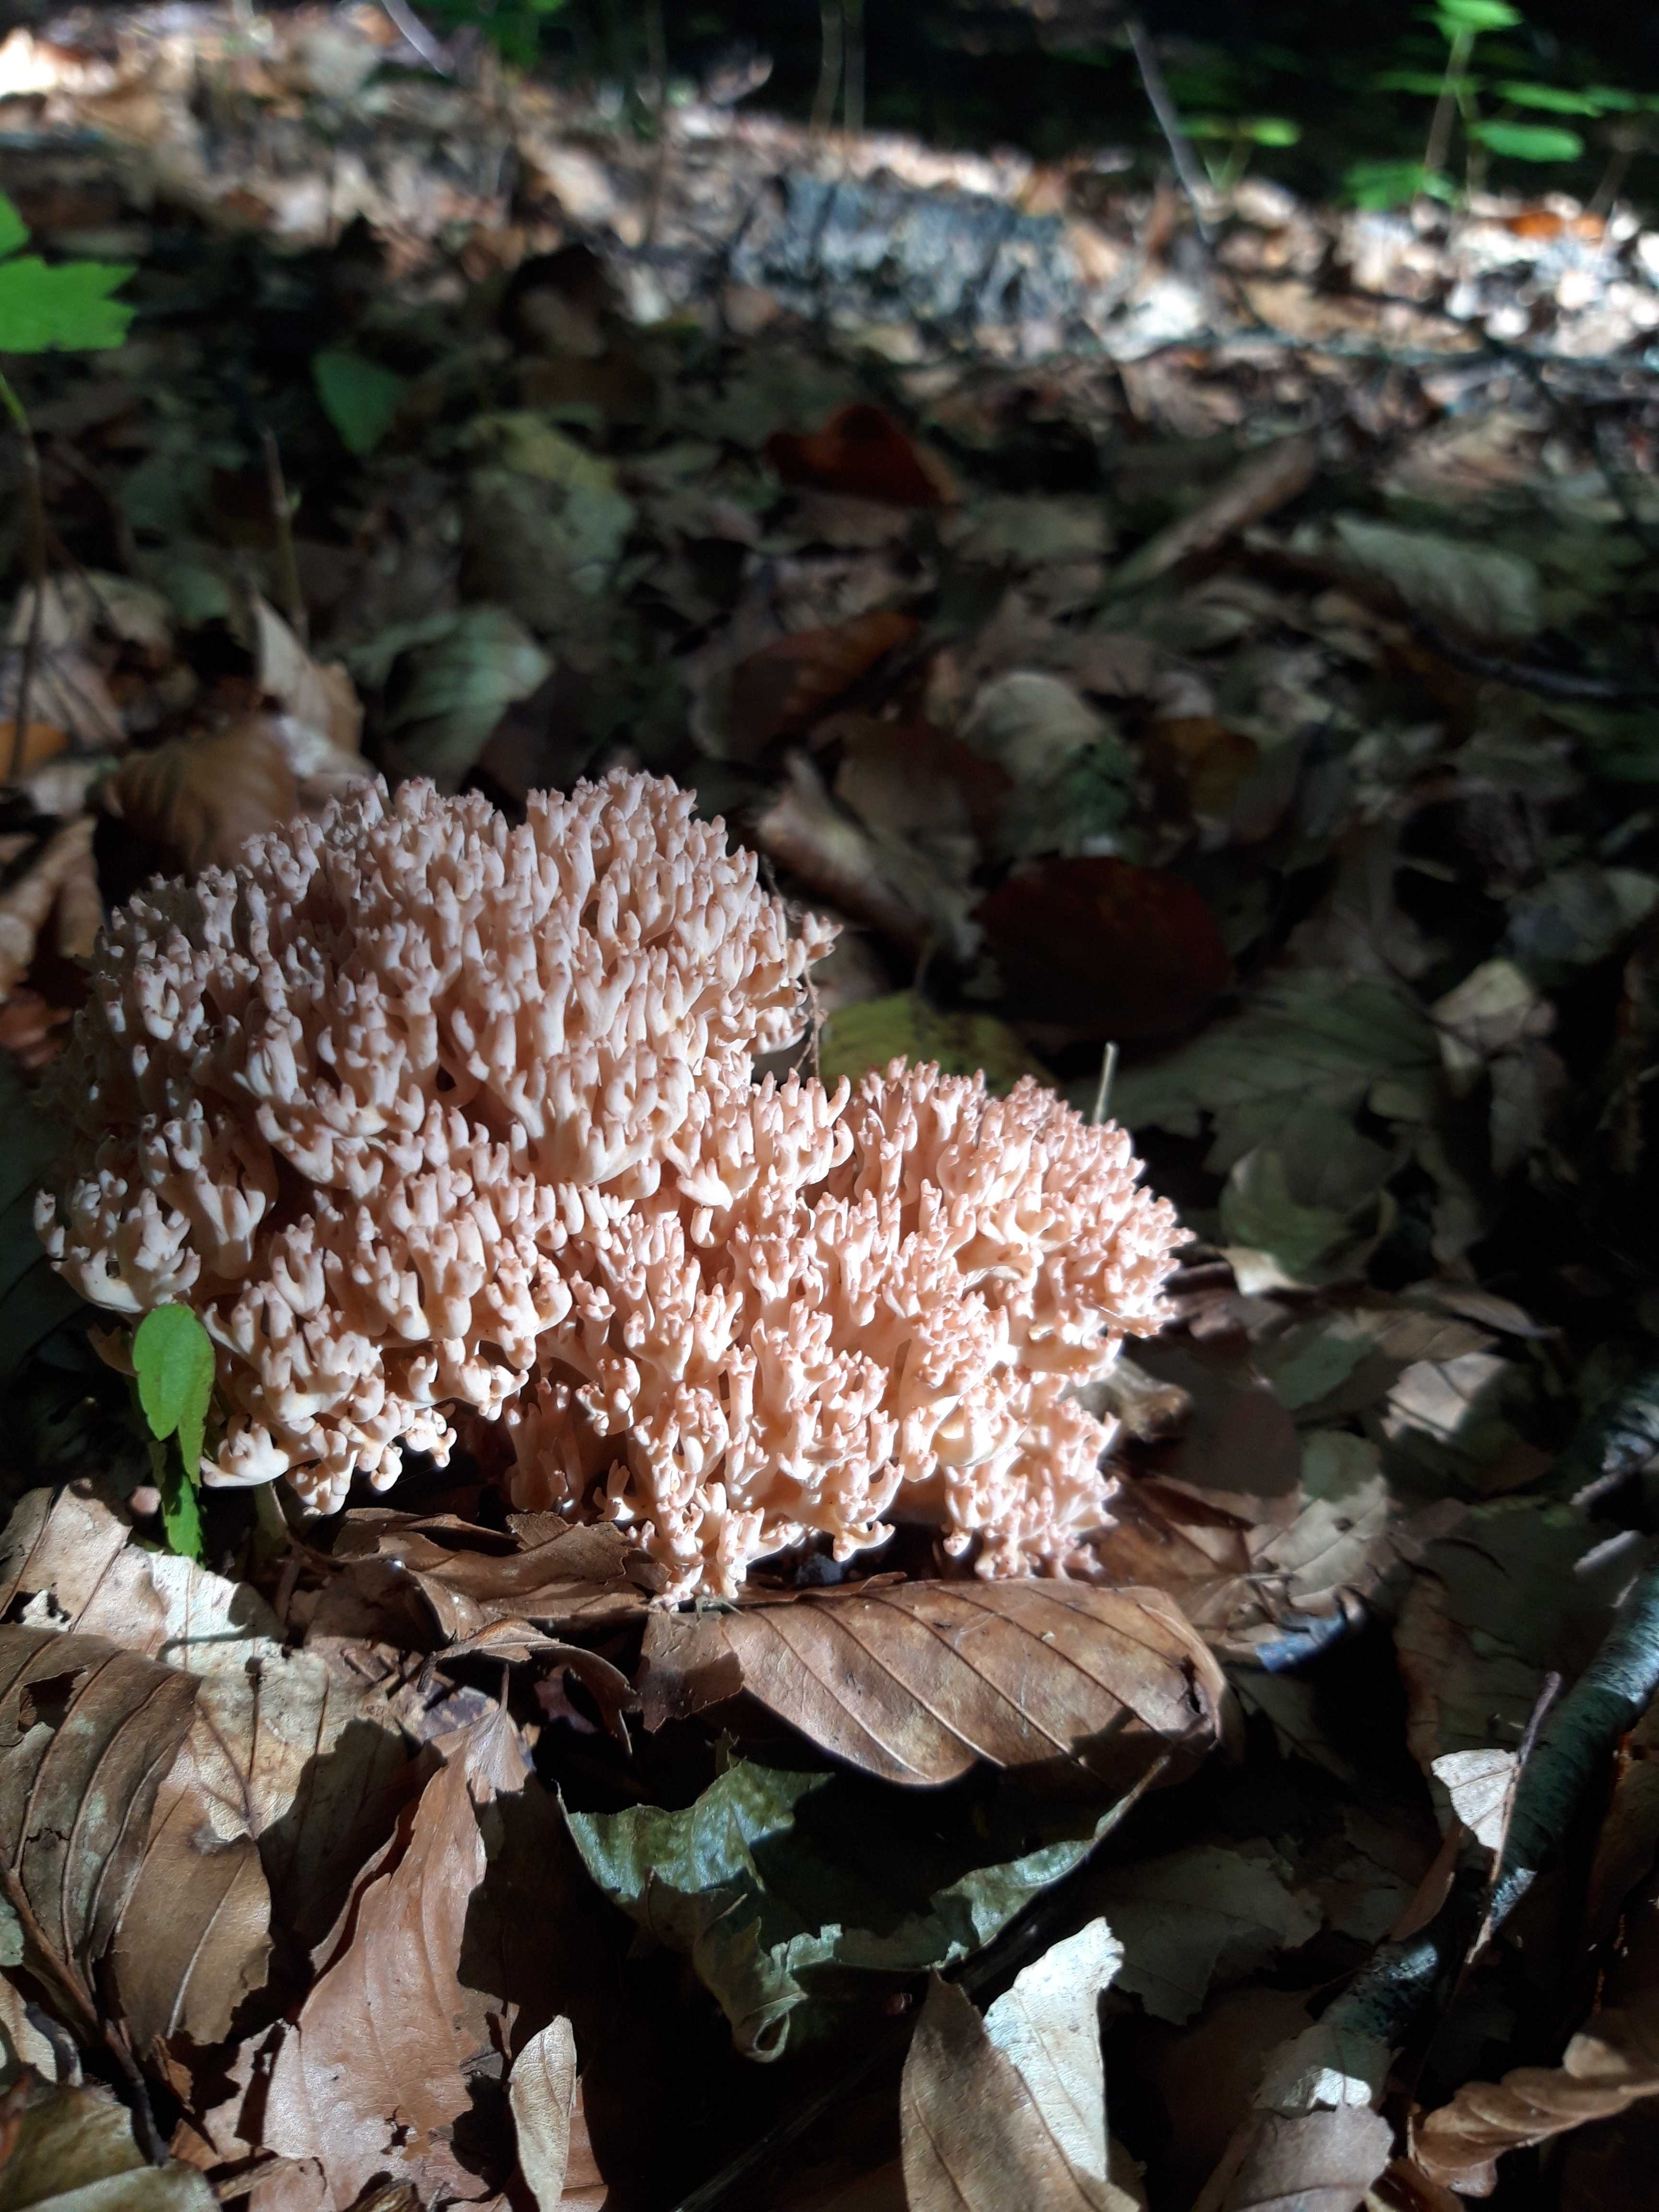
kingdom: Fungi
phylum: Basidiomycota
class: Agaricomycetes
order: Gomphales
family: Gomphaceae
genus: Ramaria
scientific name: Ramaria botrytis
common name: drue-koralsvamp
